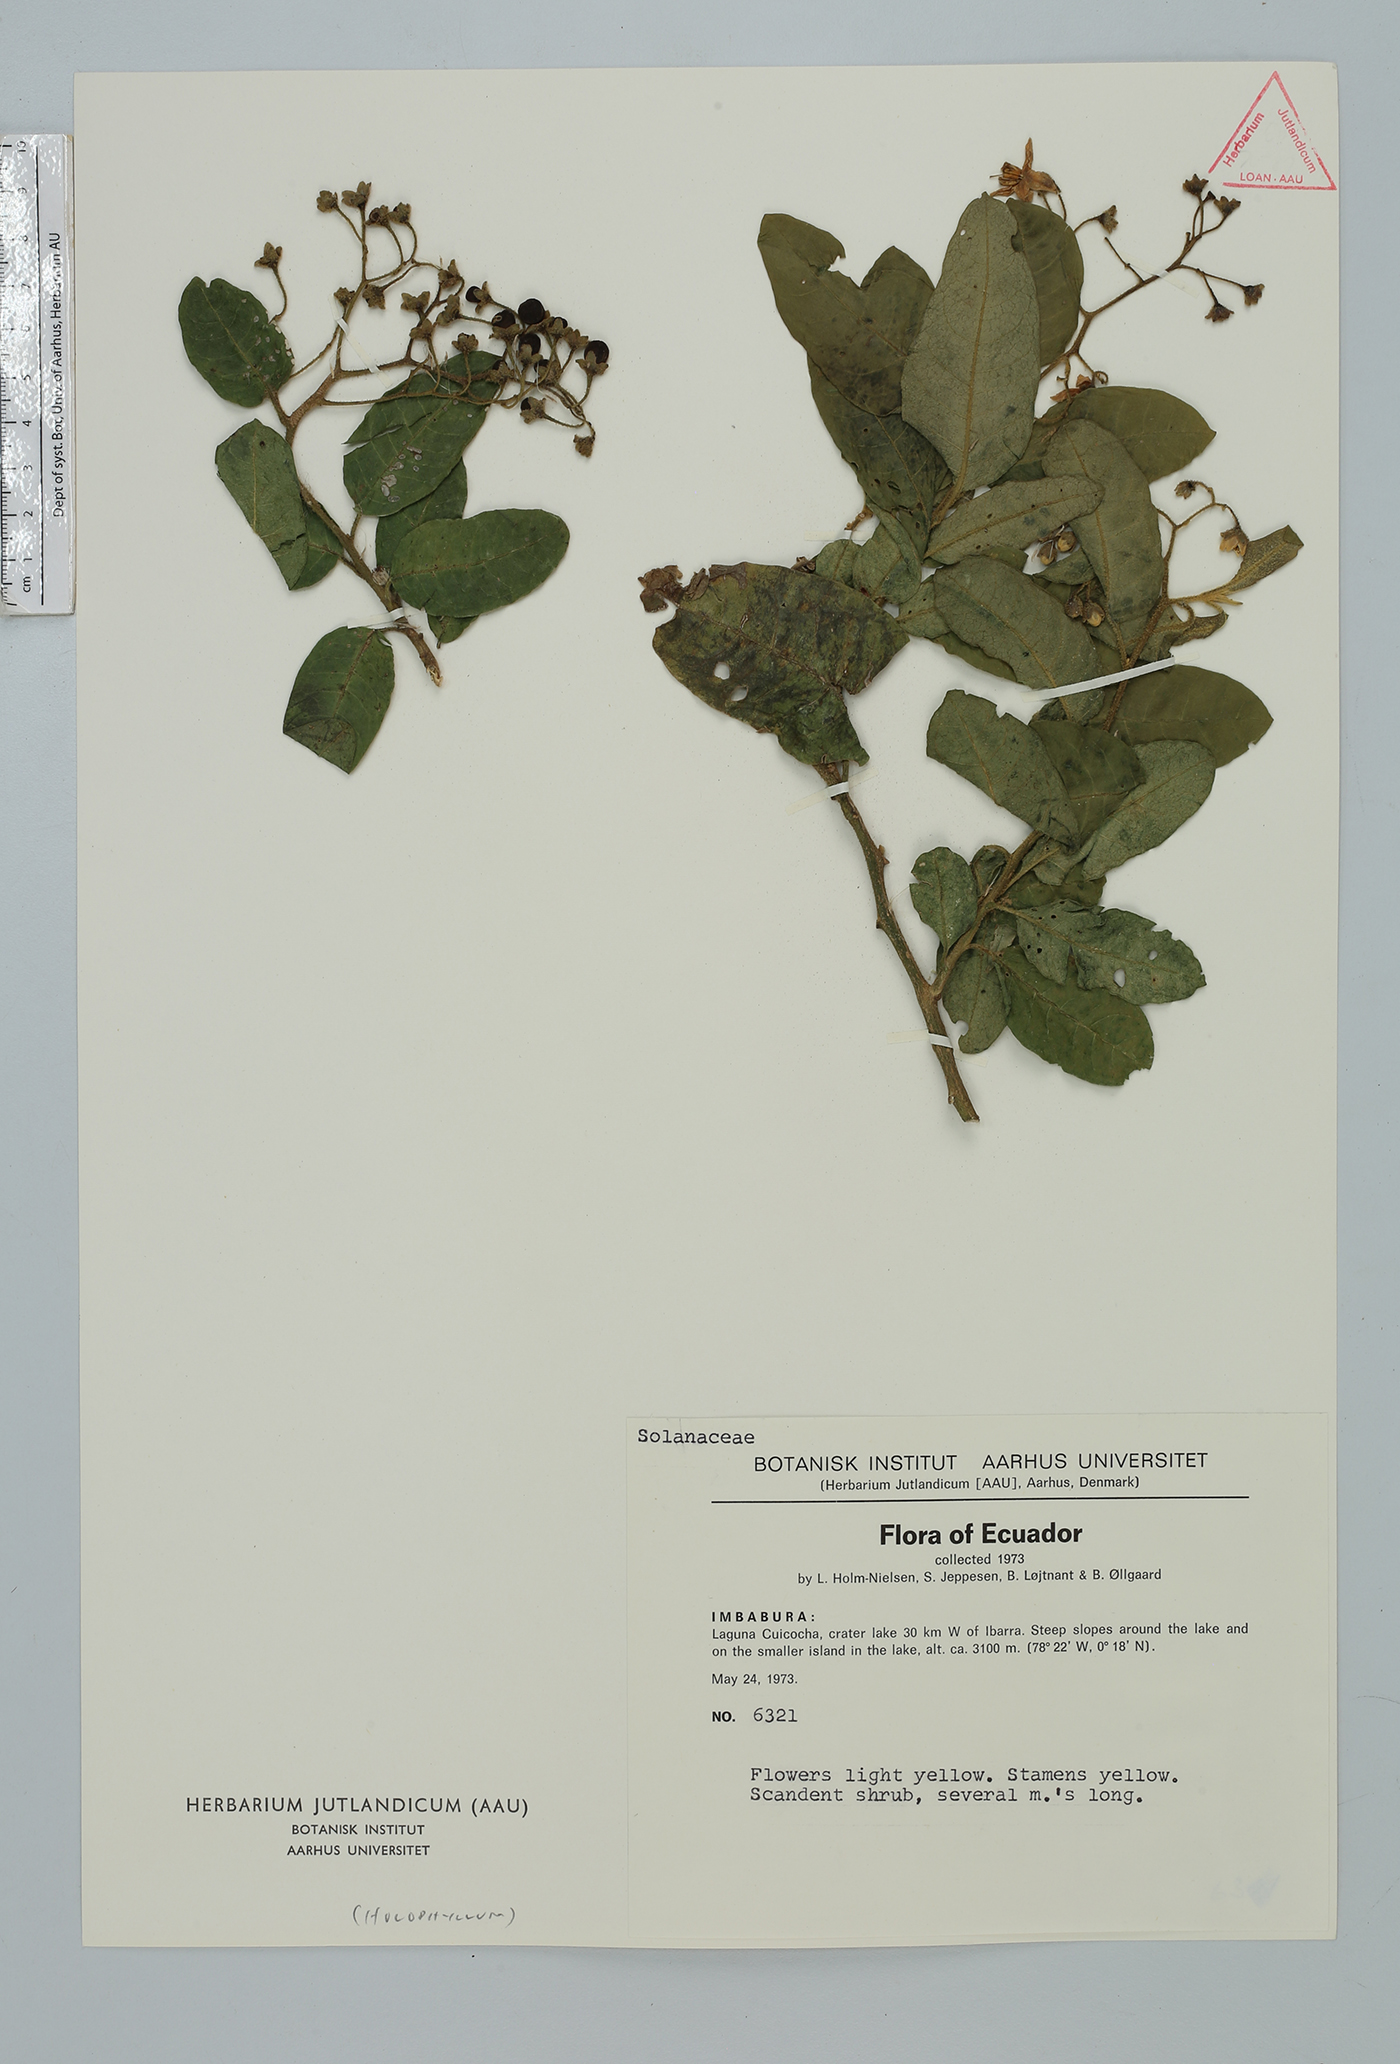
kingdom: Plantae
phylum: Tracheophyta
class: Magnoliopsida
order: Solanales
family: Solanaceae
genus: Solanum
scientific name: Solanum
